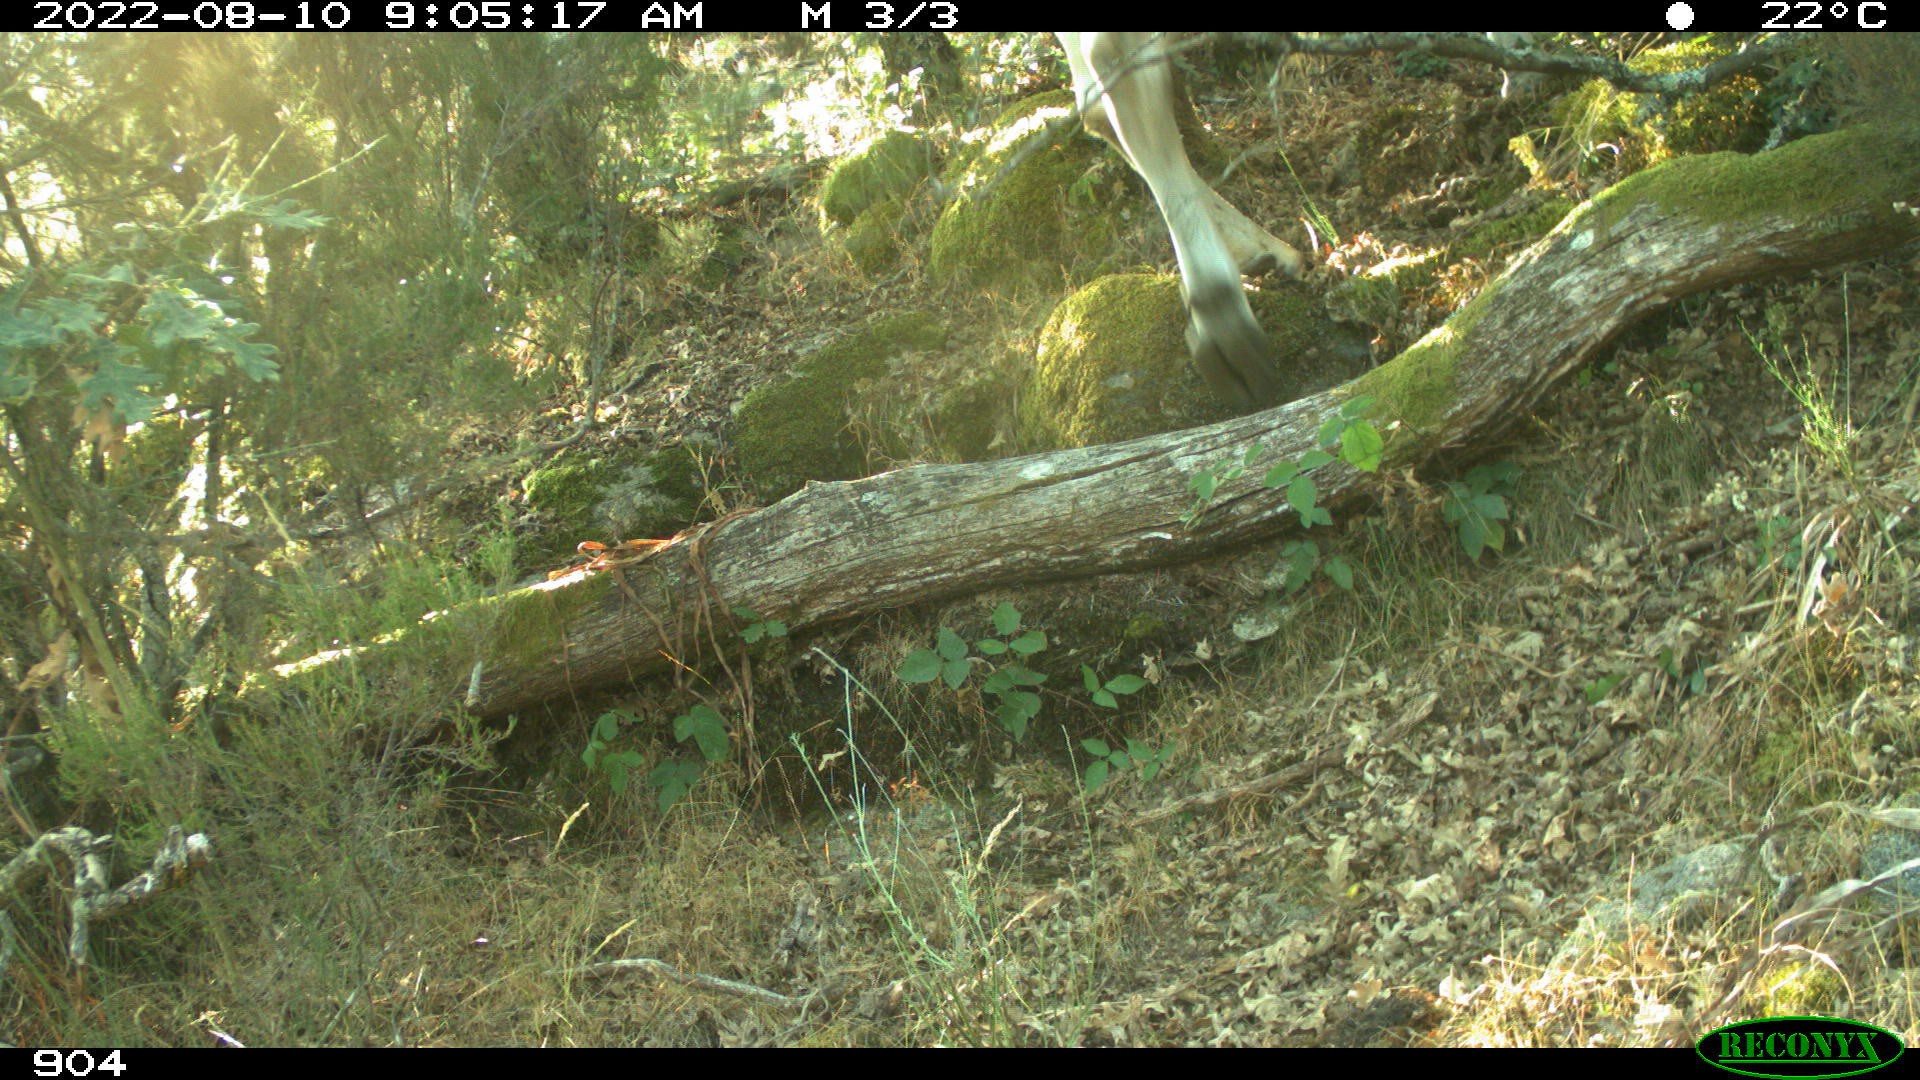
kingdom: Animalia
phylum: Chordata
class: Mammalia
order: Artiodactyla
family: Bovidae
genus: Bos
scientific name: Bos taurus
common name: Domesticated cattle
